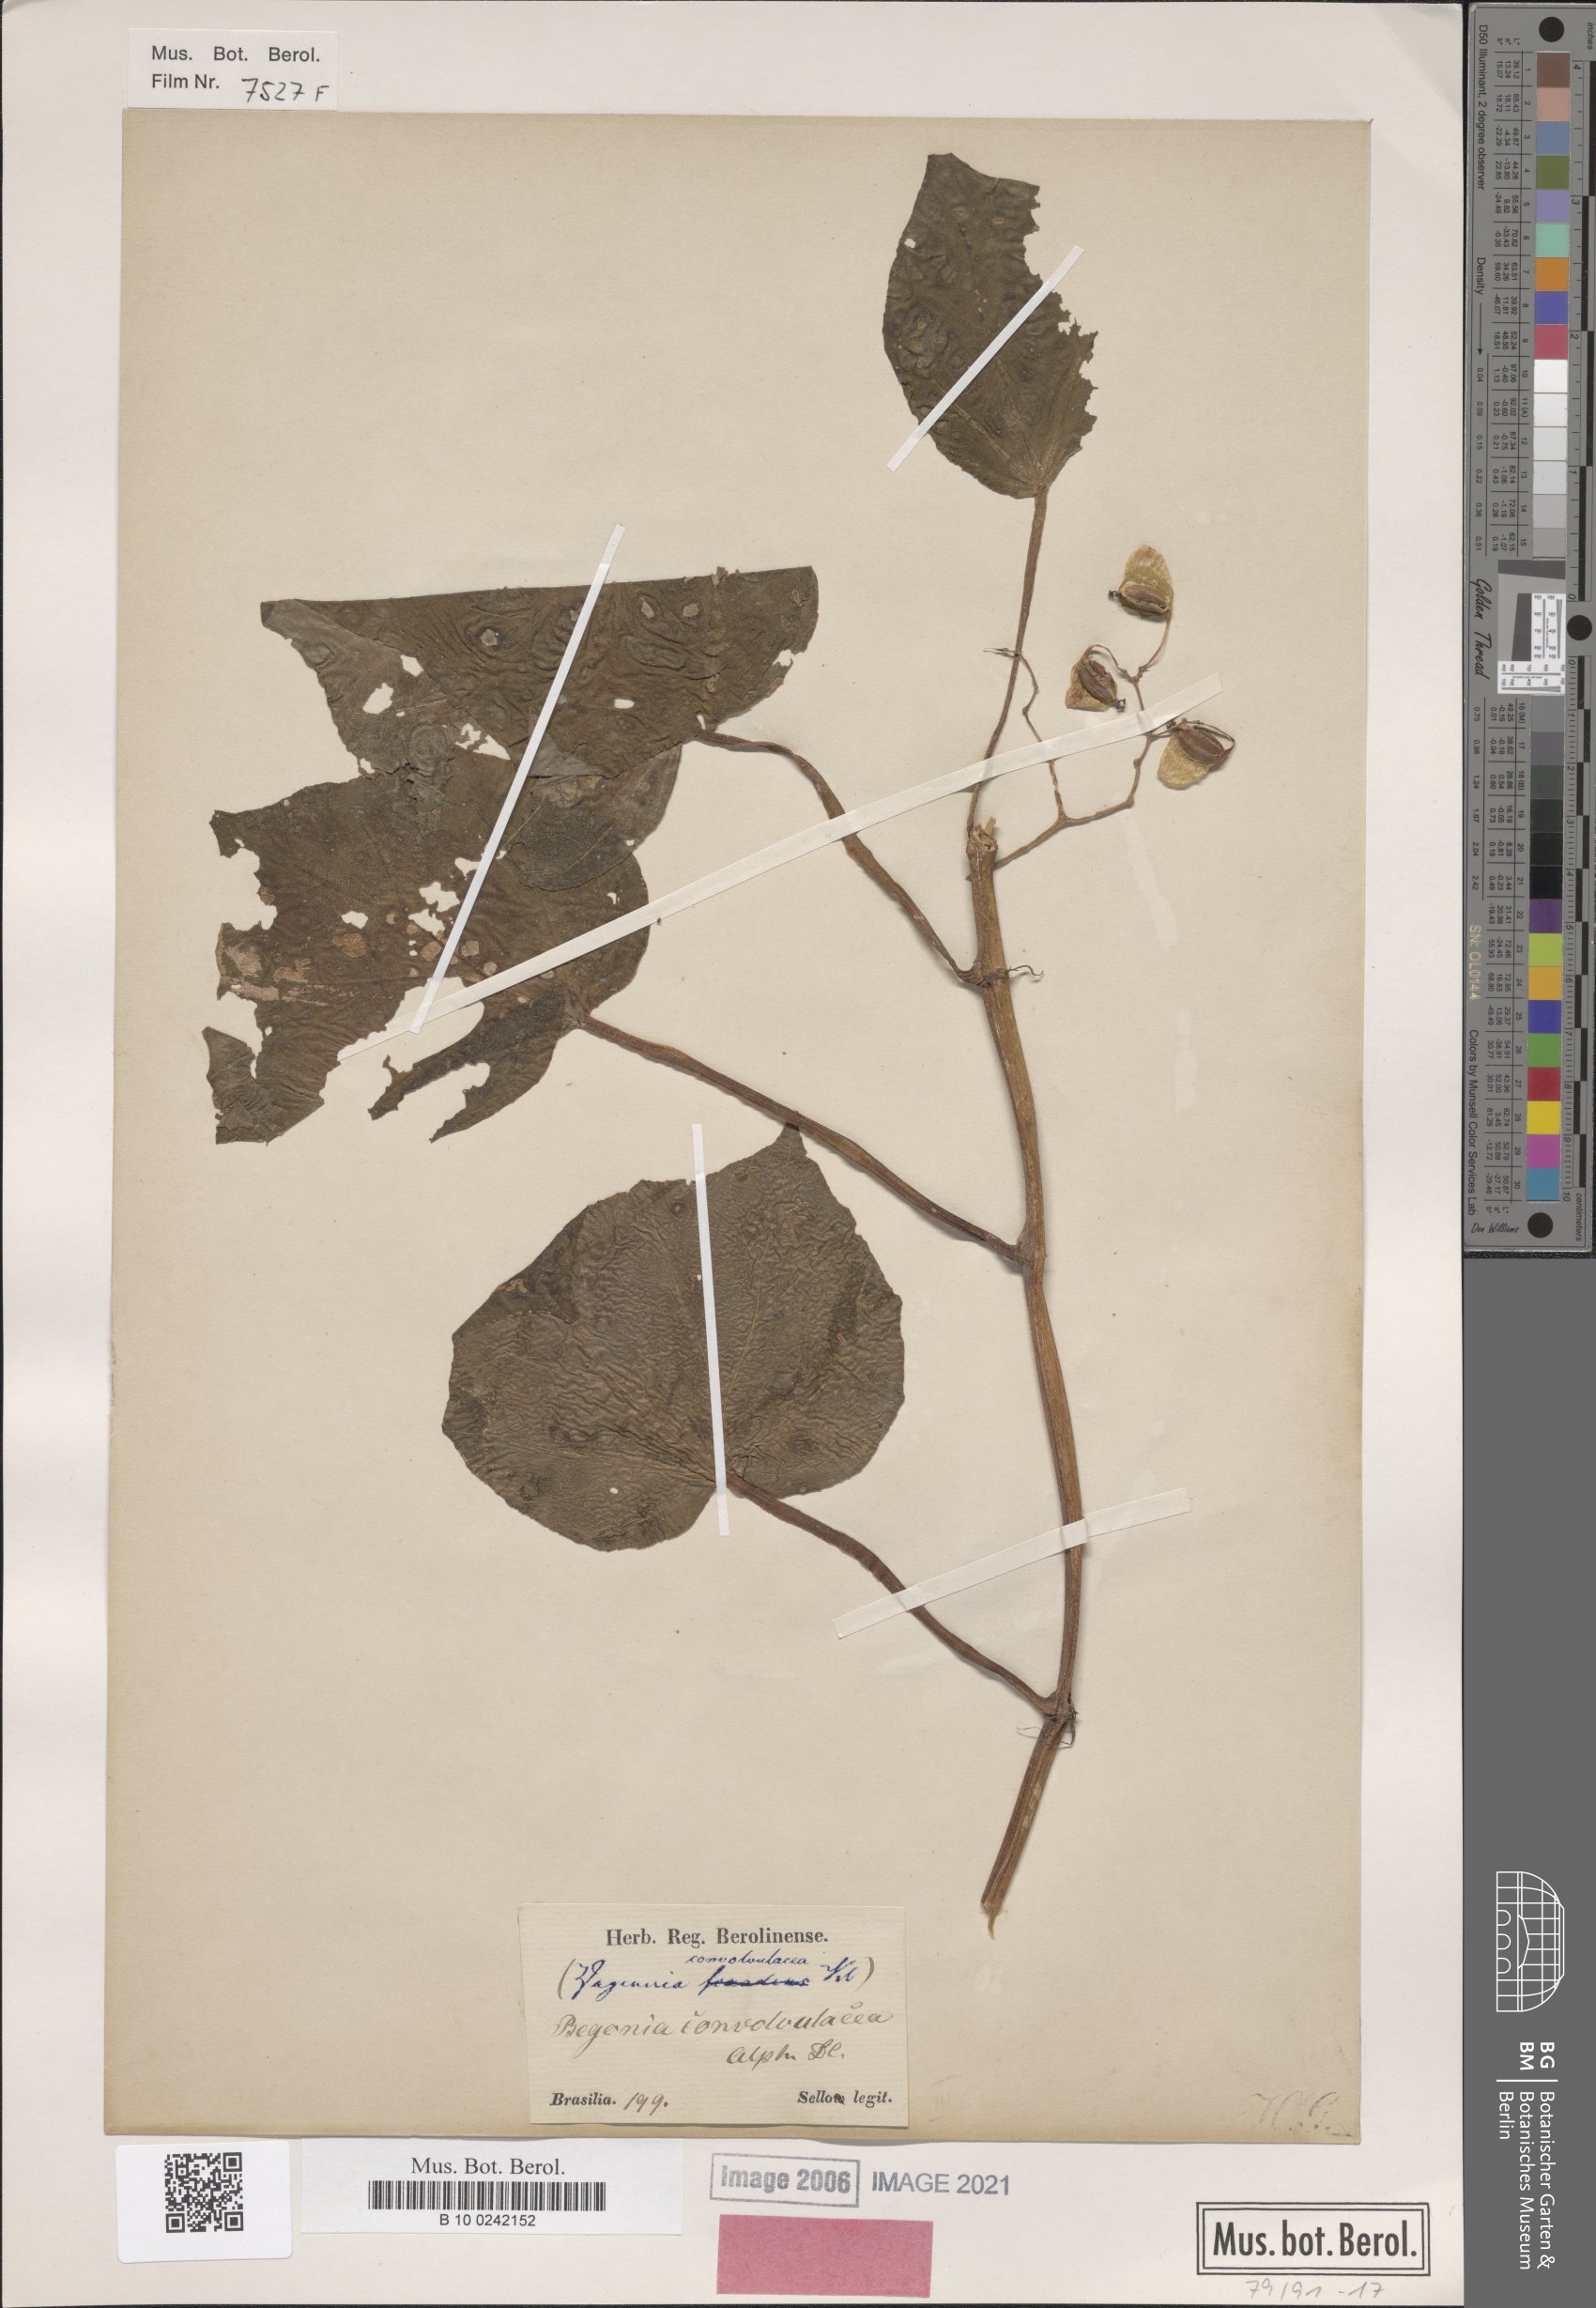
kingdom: Plantae
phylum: Tracheophyta
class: Magnoliopsida
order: Cucurbitales
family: Begoniaceae
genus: Begonia
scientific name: Begonia convolvulacea
